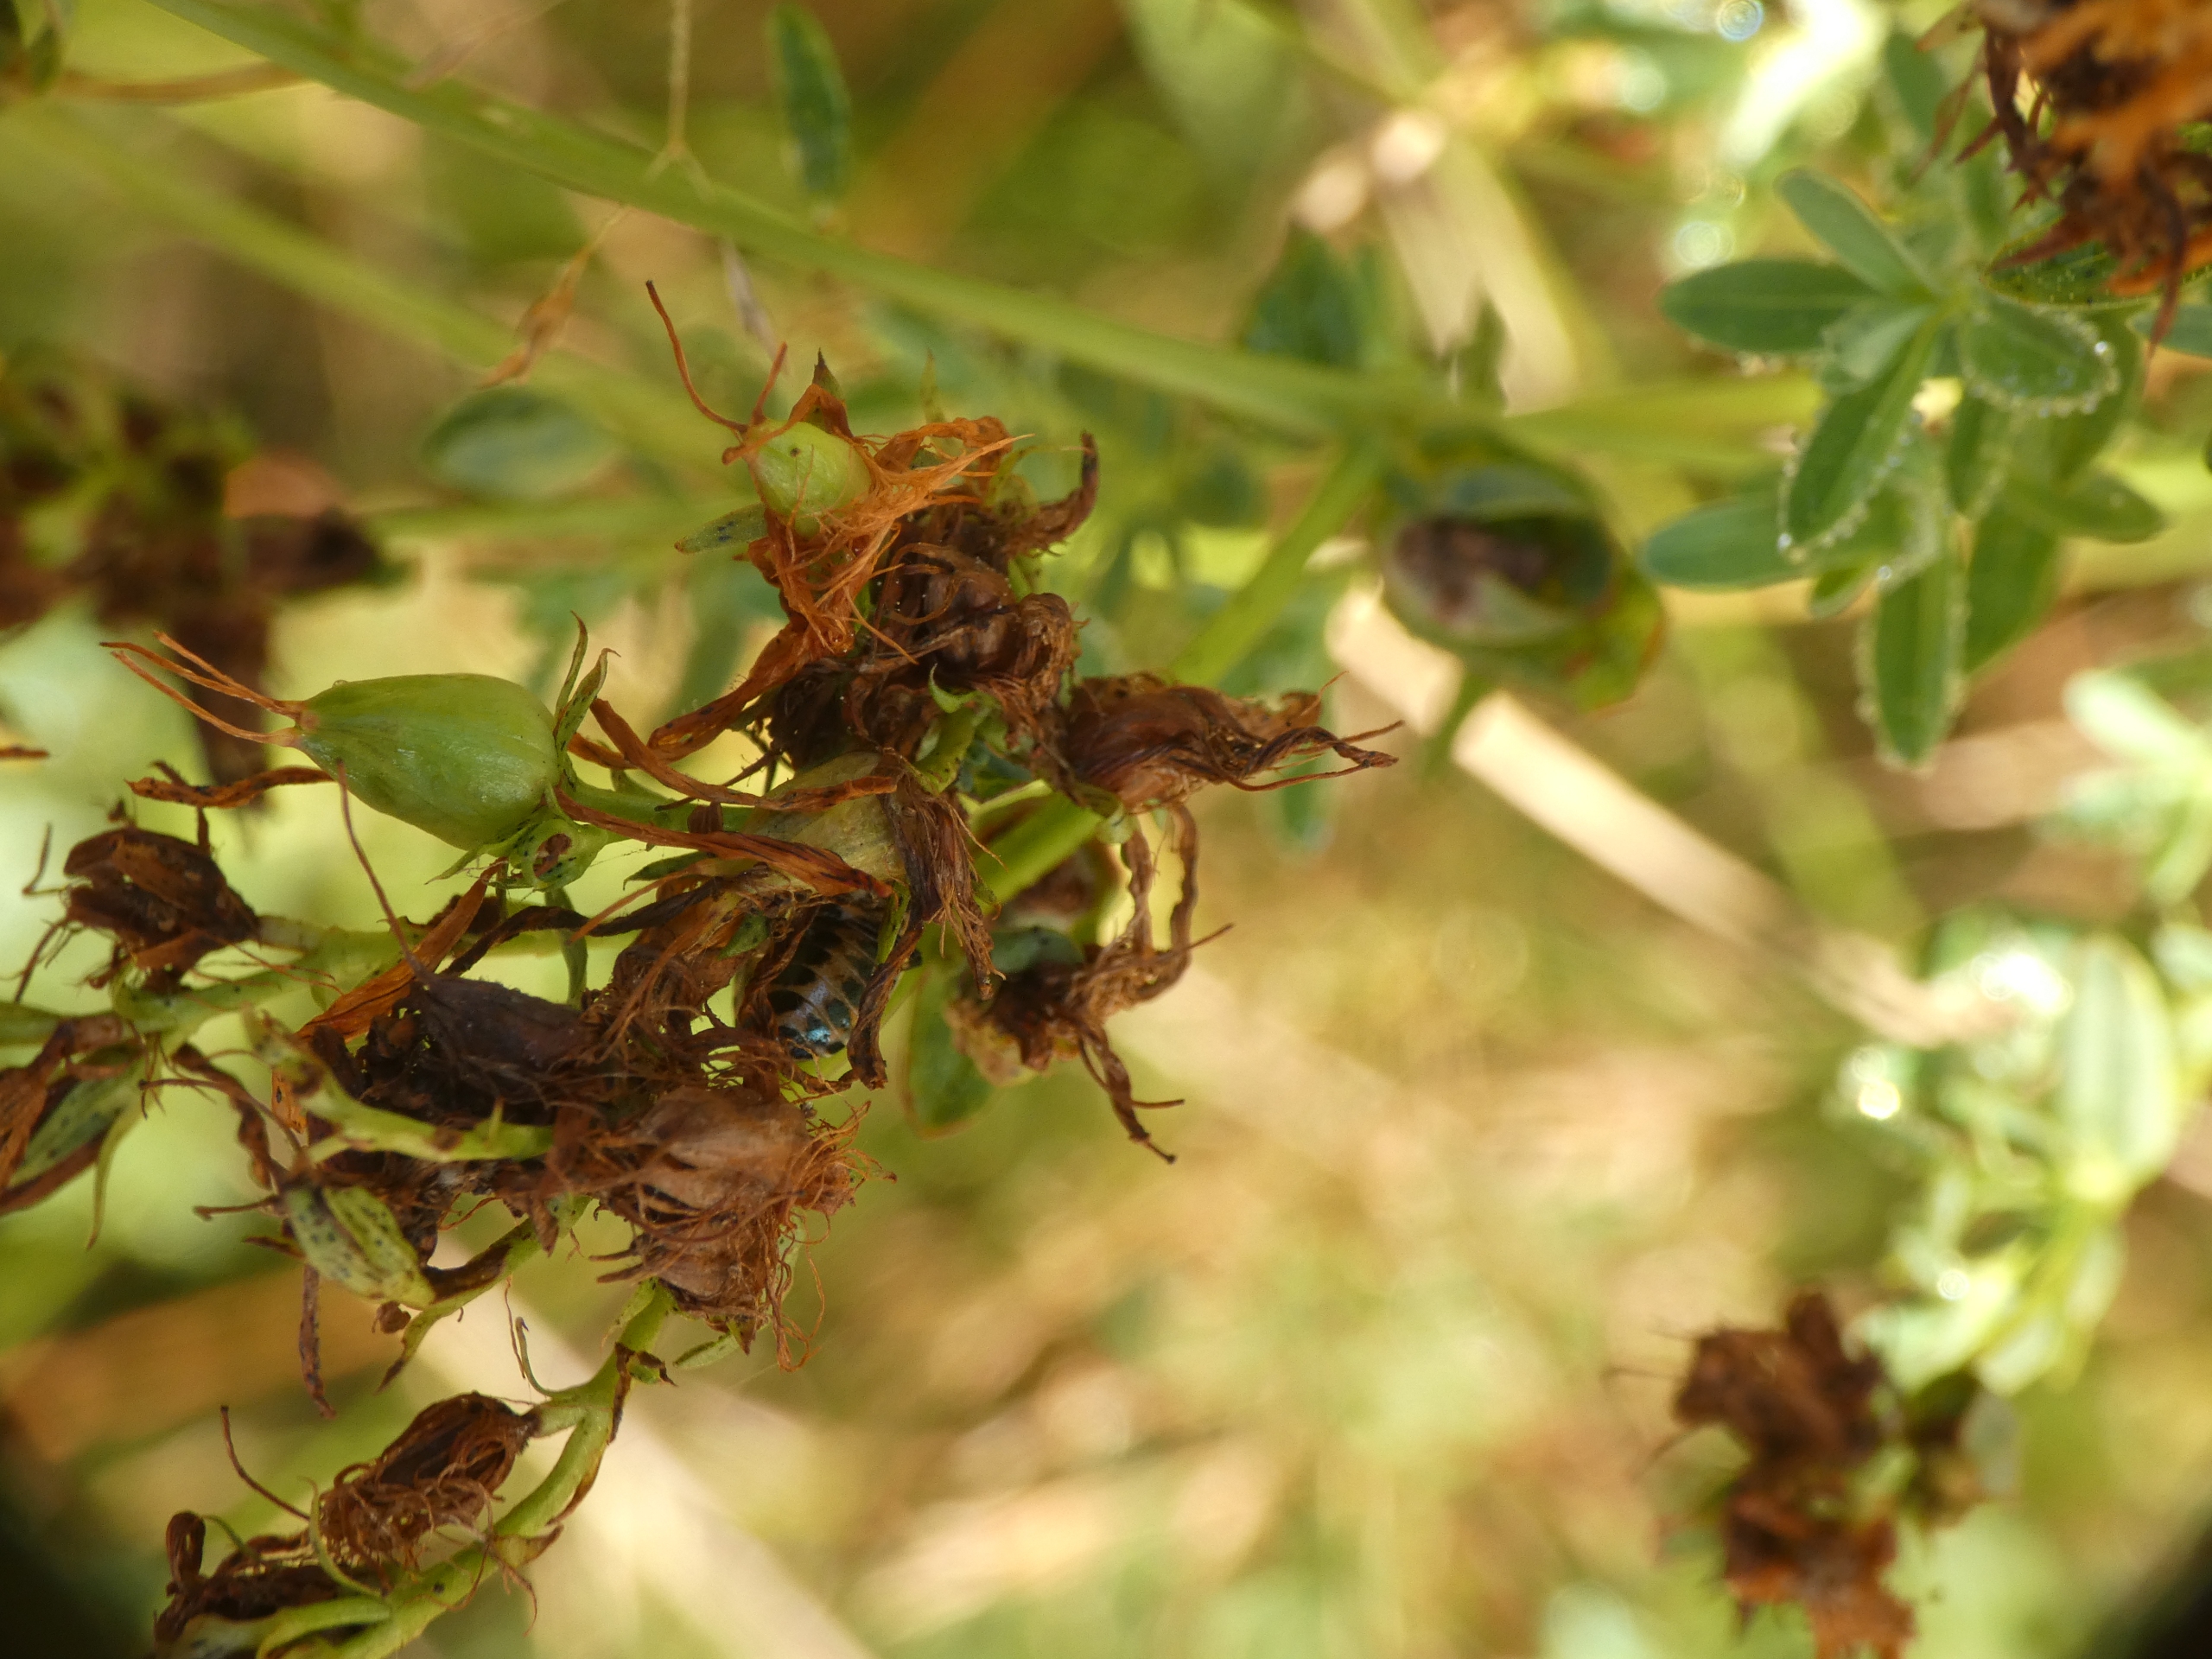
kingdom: Plantae
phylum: Tracheophyta
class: Magnoliopsida
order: Malpighiales
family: Hypericaceae
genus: Hypericum
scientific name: Hypericum perforatum
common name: Prikbladet perikon
